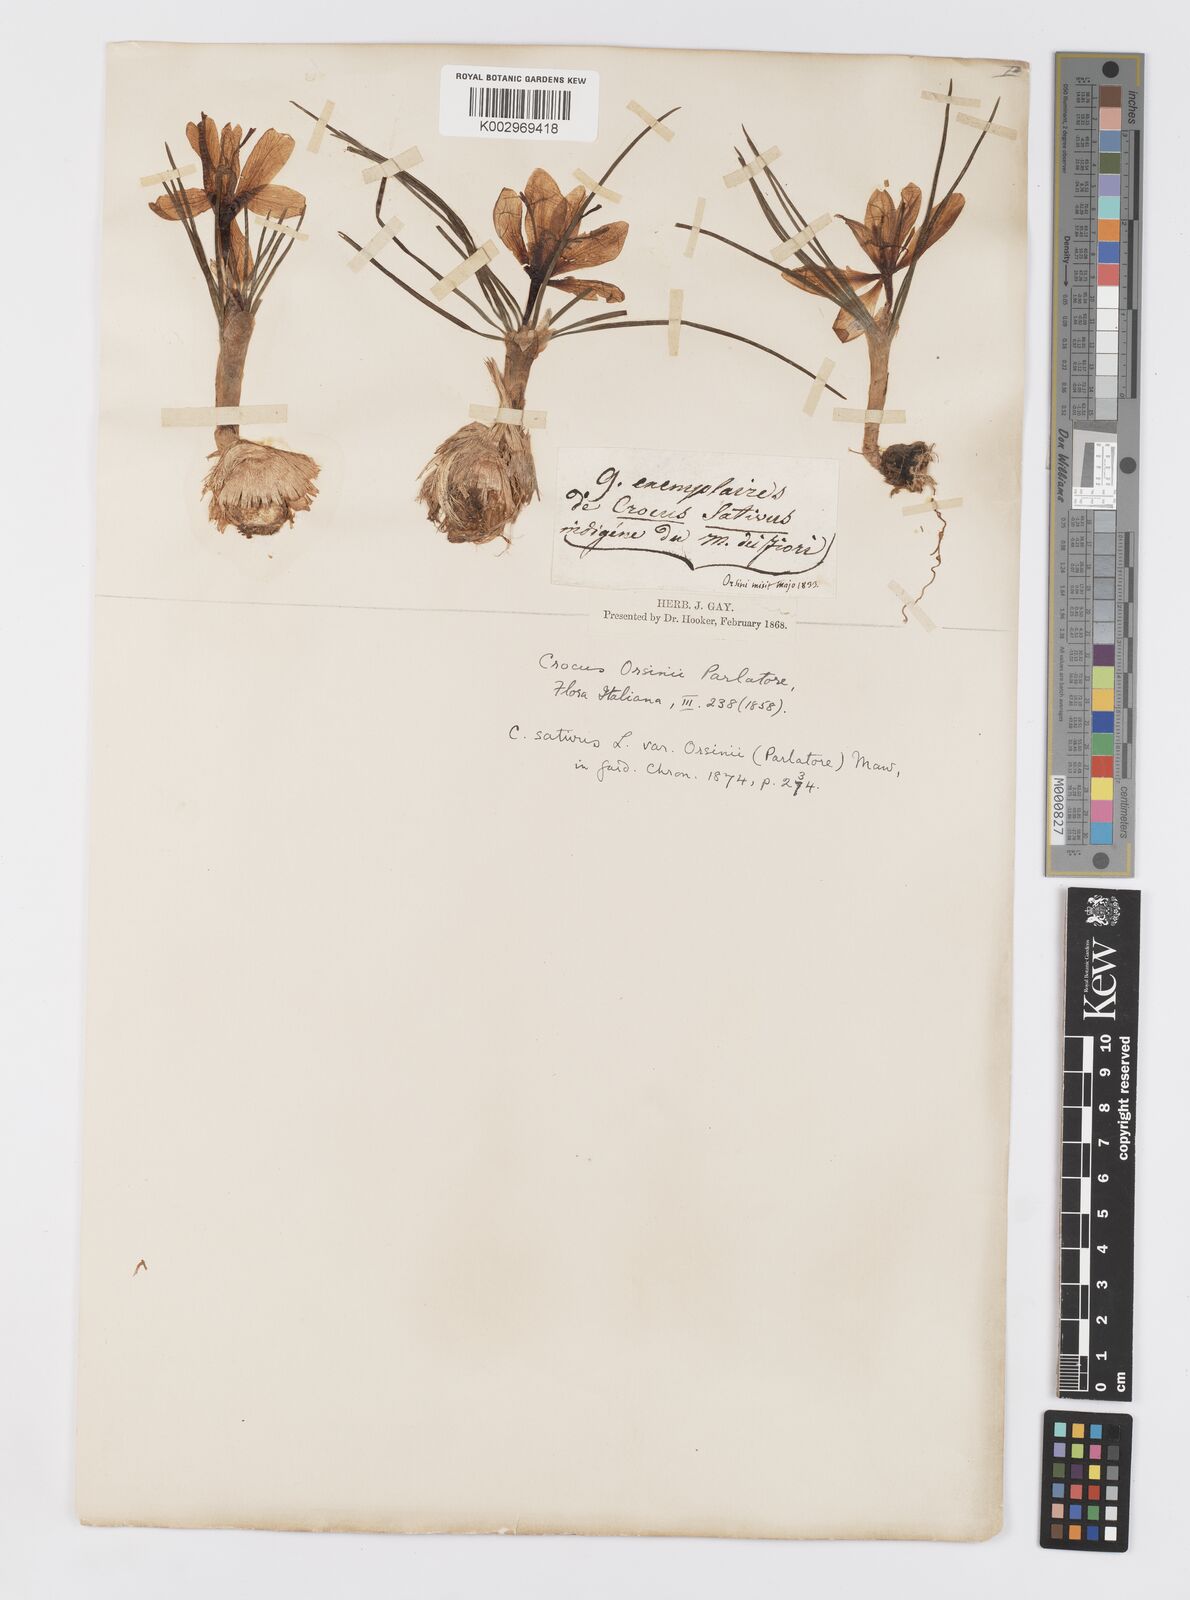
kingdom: Plantae
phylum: Tracheophyta
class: Liliopsida
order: Asparagales
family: Iridaceae
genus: Crocus
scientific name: Crocus sativus
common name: Saffron crocus
